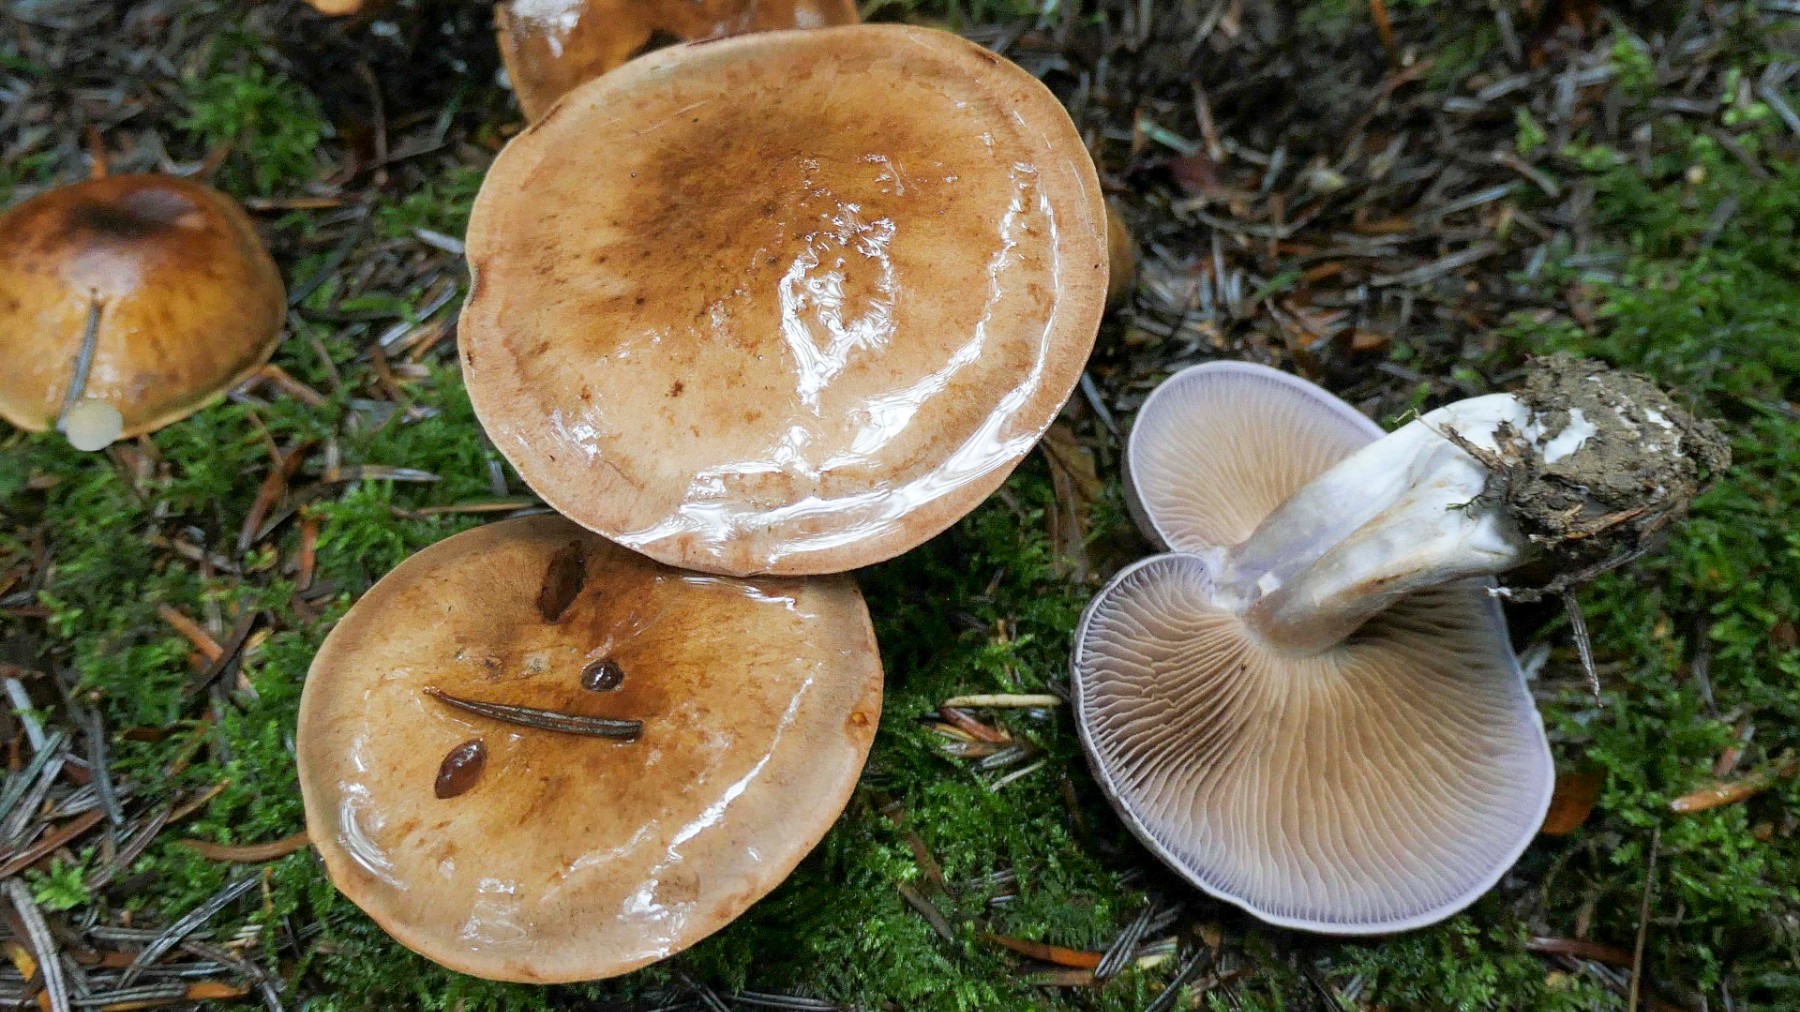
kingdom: Fungi
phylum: Basidiomycota
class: Agaricomycetes
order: Agaricales
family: Cortinariaceae
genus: Cortinarius
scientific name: Cortinarius largus
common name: violetrandet slørhat
